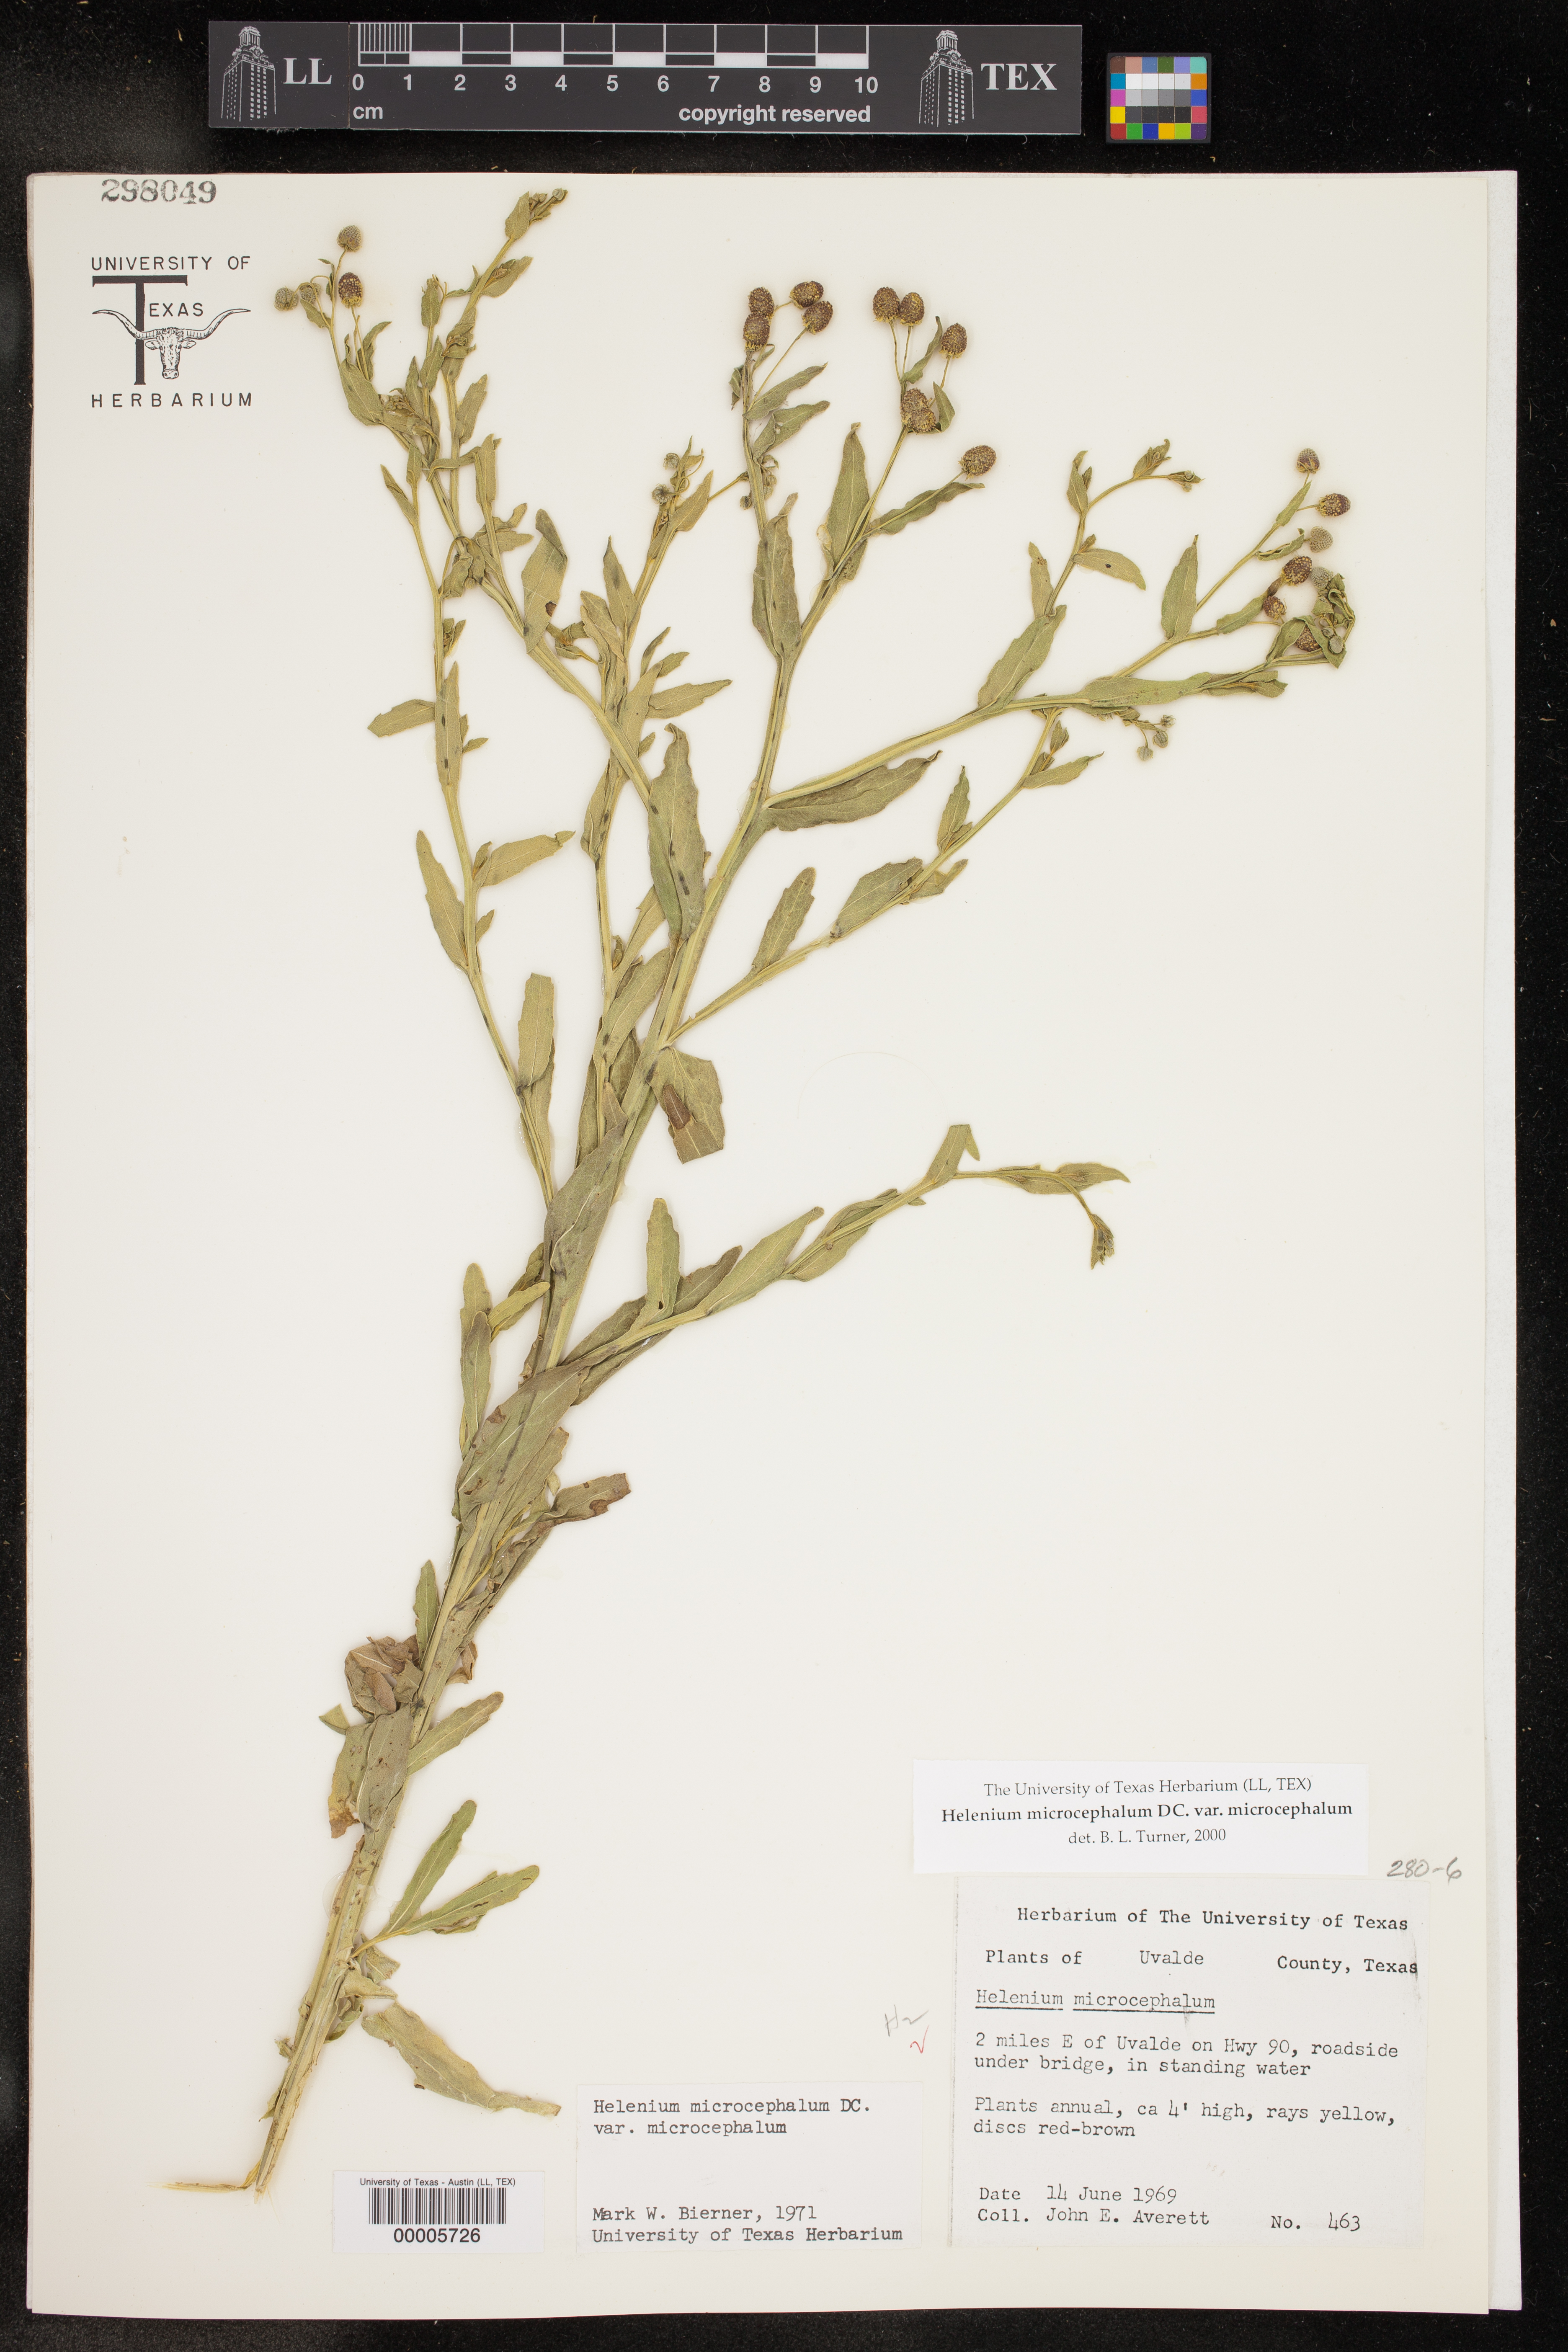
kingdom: Plantae
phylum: Tracheophyta
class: Magnoliopsida
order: Asterales
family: Asteraceae
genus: Helenium
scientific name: Helenium microcephalum
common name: Smallhead sneezeweed
